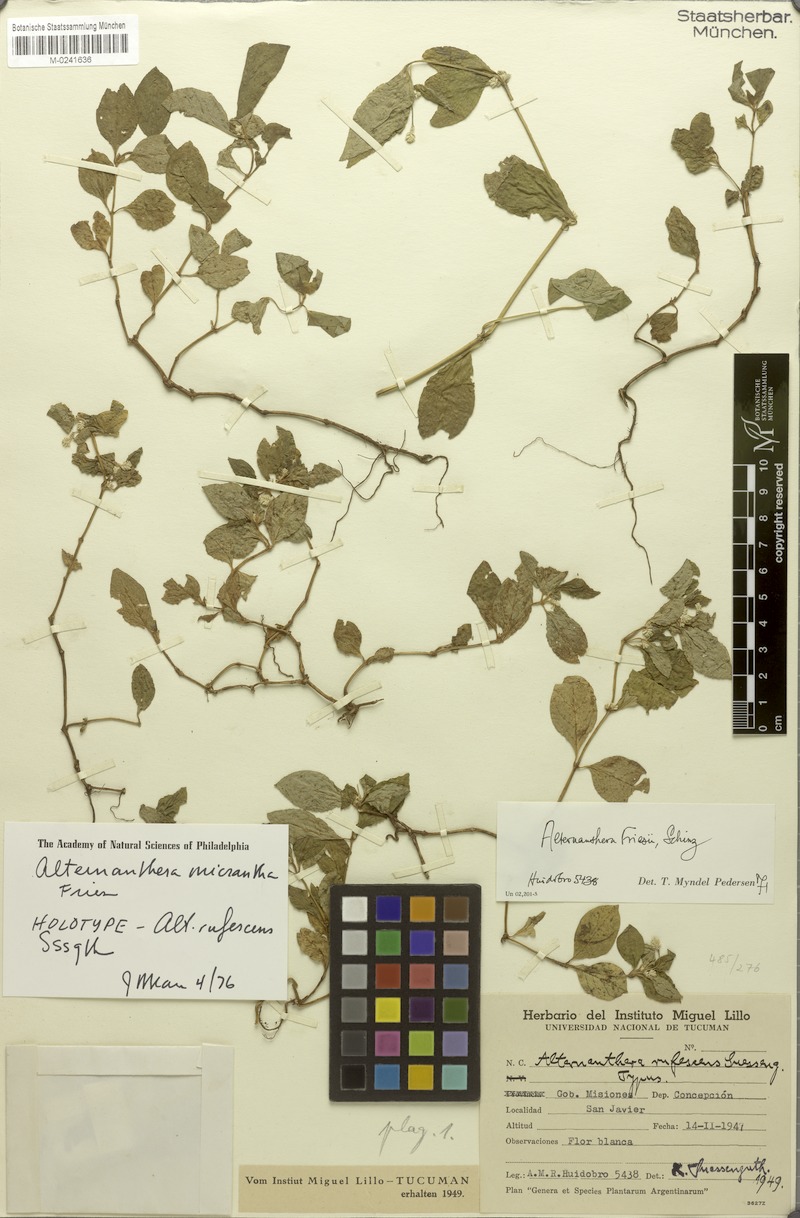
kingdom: Plantae
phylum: Tracheophyta
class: Magnoliopsida
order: Caryophyllales
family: Amaranthaceae
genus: Alternanthera
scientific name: Alternanthera micrantha
